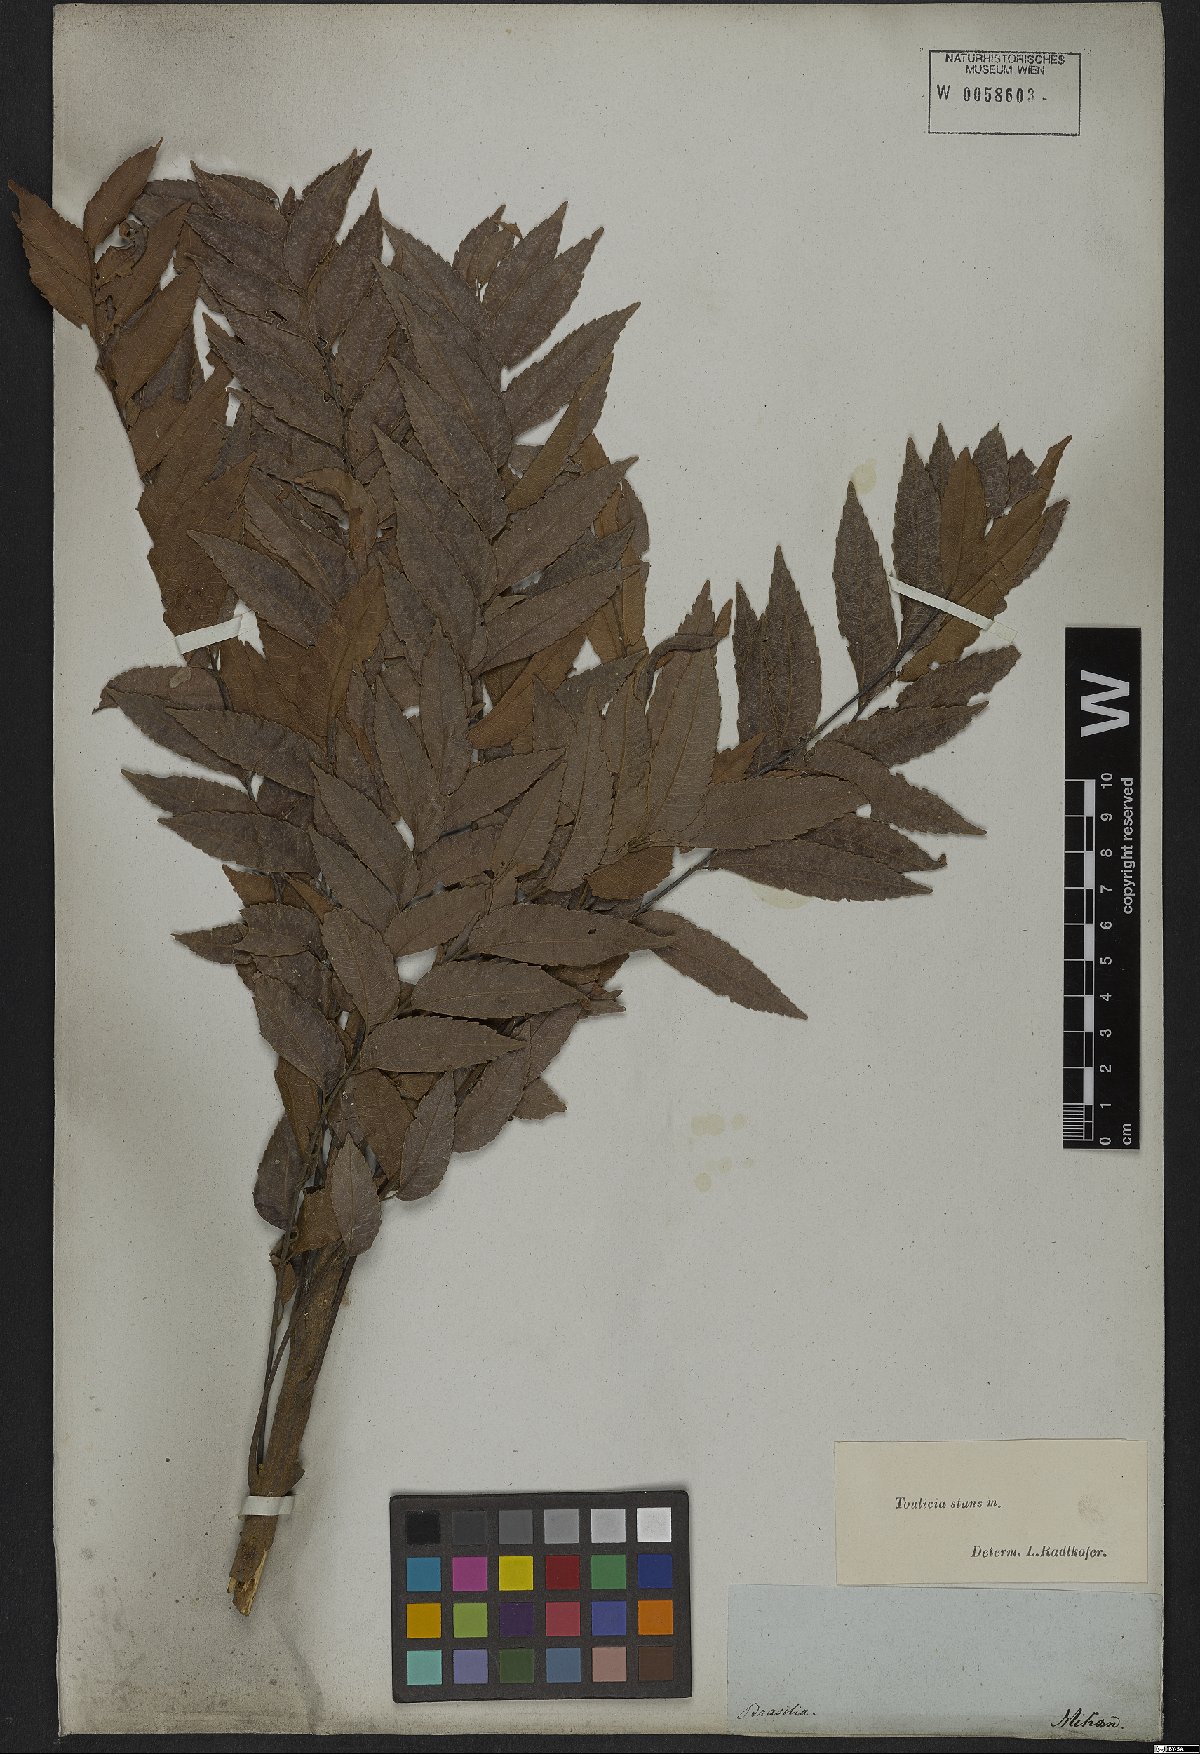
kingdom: Plantae
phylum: Tracheophyta
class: Magnoliopsida
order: Sapindales
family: Sapindaceae
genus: Toulicia
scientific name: Toulicia stans
